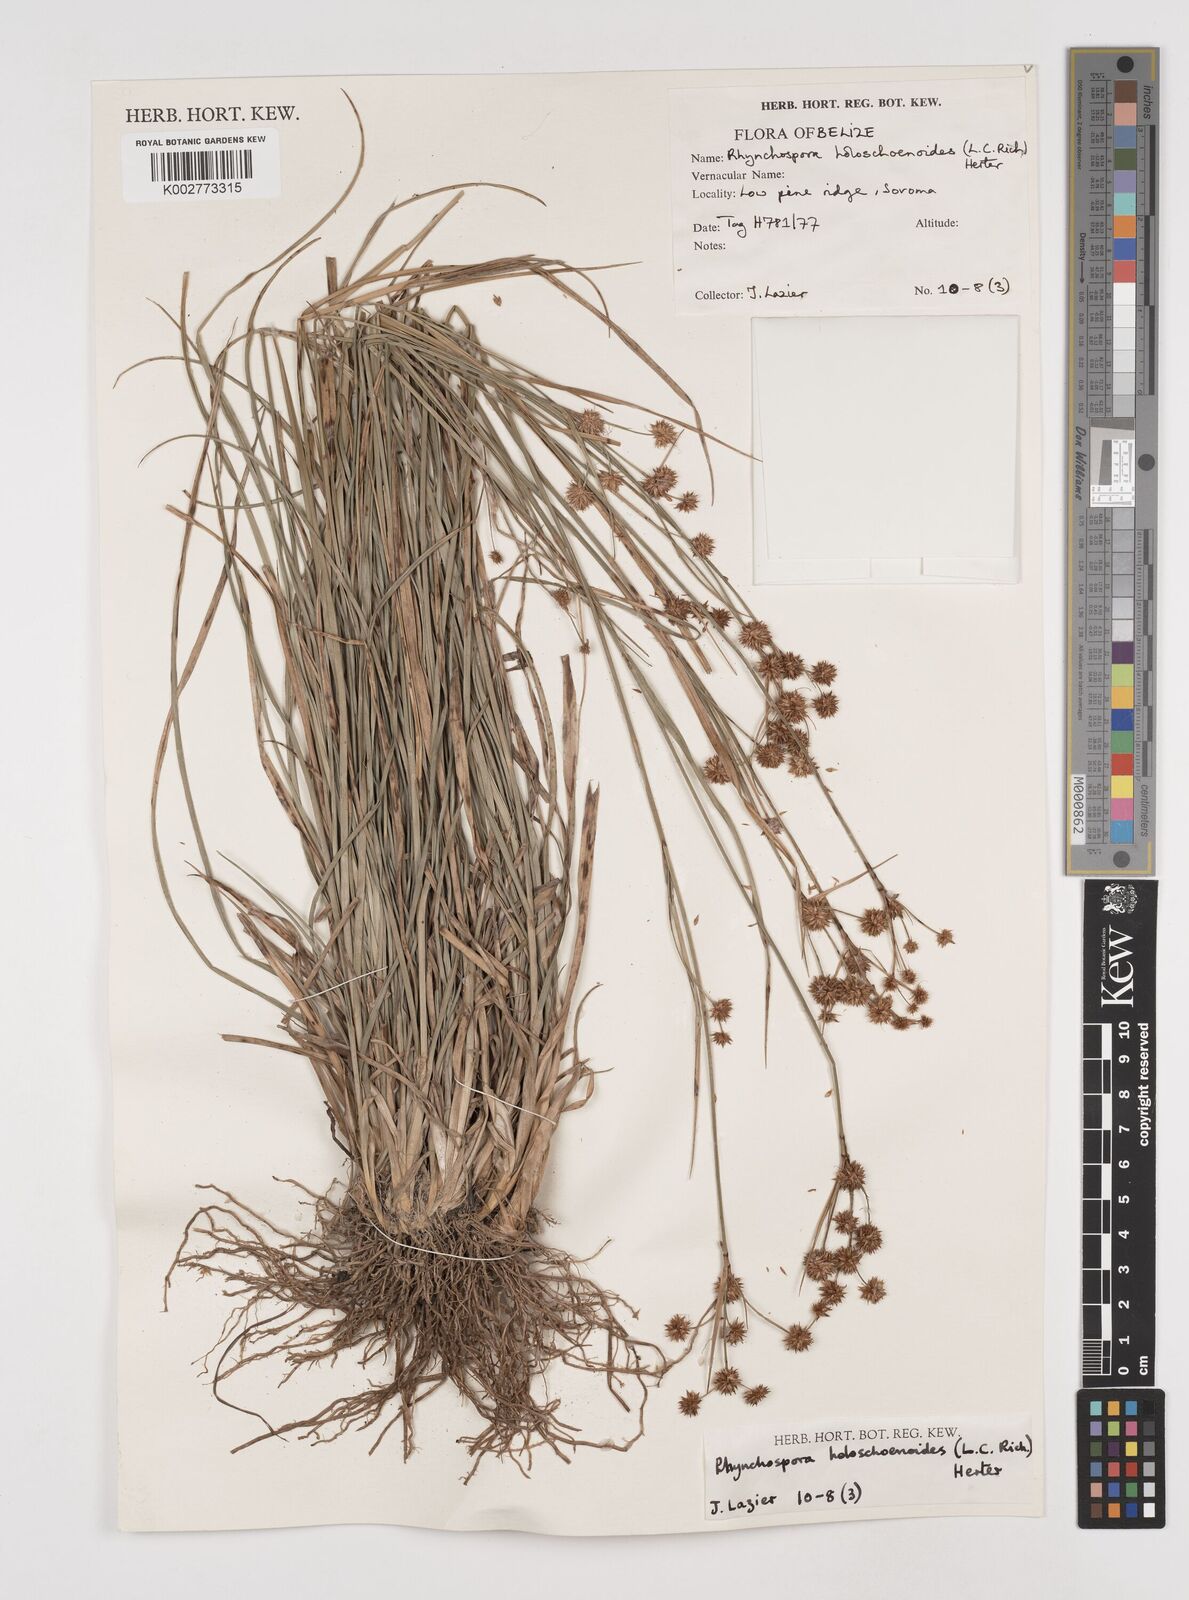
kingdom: Plantae
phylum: Tracheophyta
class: Liliopsida
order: Poales
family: Cyperaceae
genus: Rhynchospora
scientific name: Rhynchospora holoschoenoides
